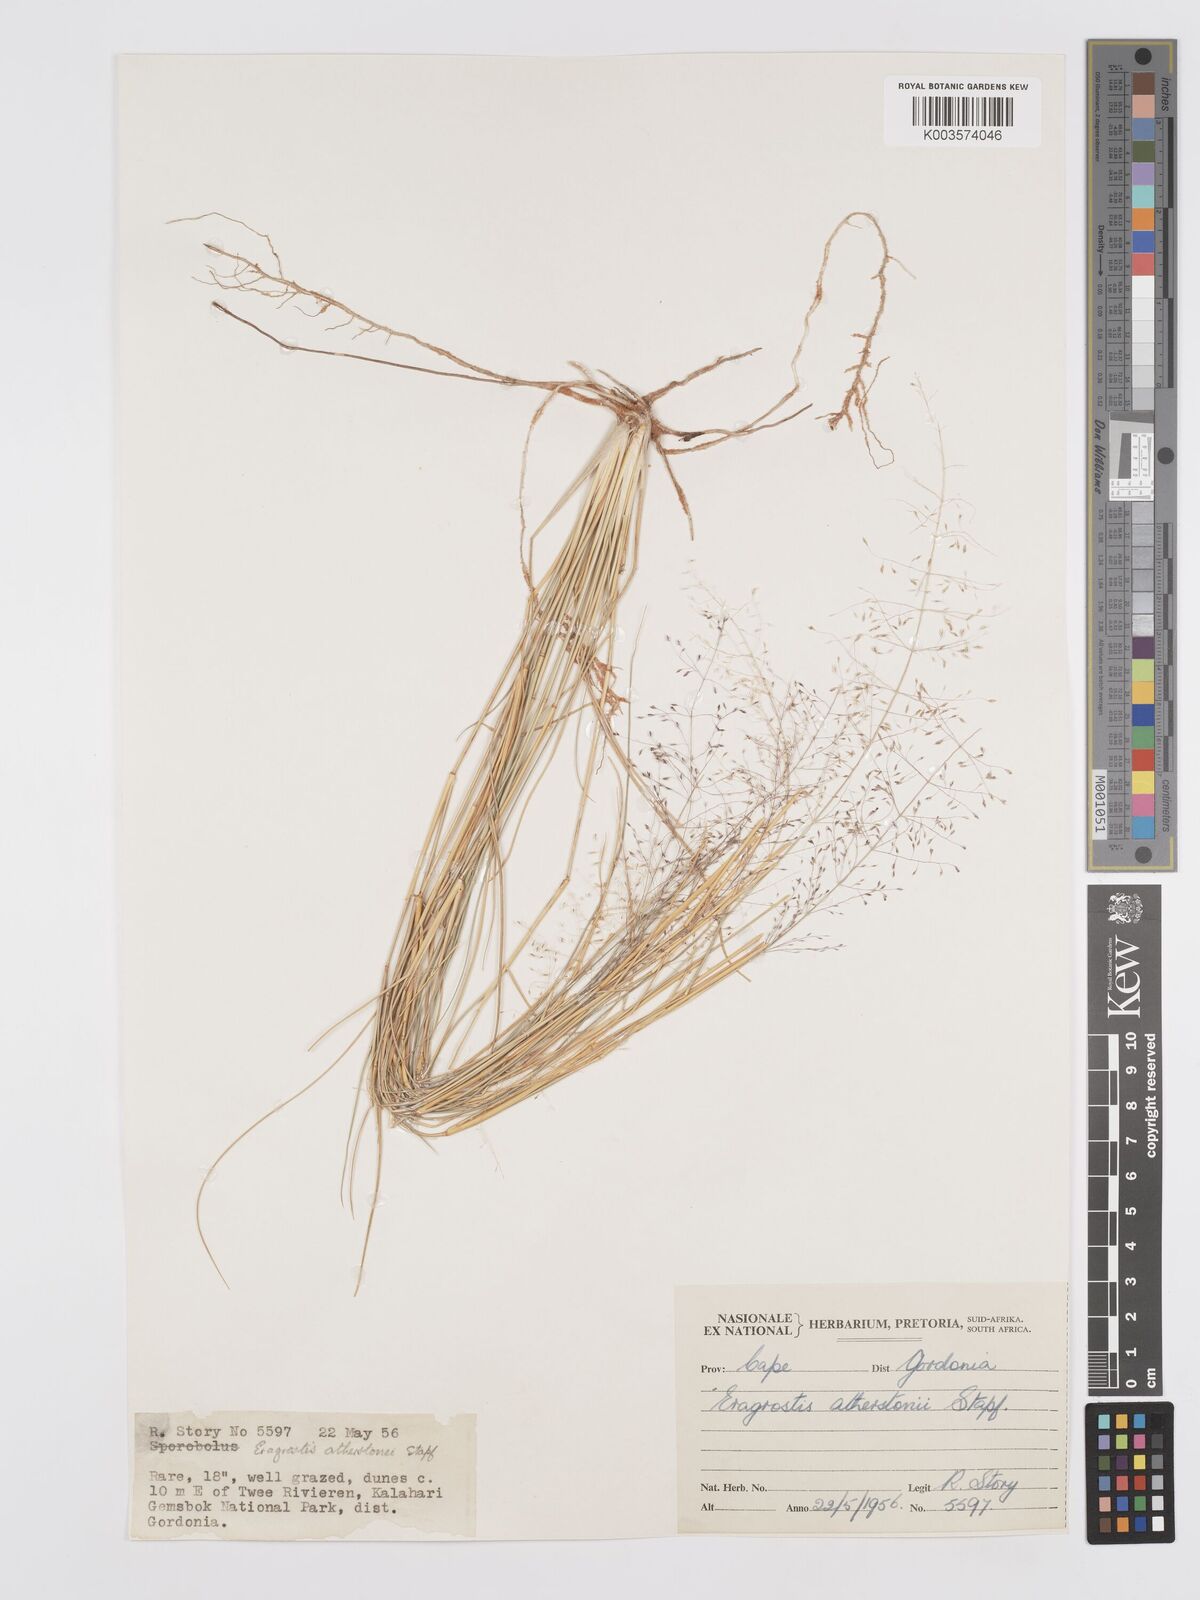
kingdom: Plantae
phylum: Tracheophyta
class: Liliopsida
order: Poales
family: Poaceae
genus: Eragrostis
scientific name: Eragrostis cylindriflora
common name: Cylinderflower lovegrass
